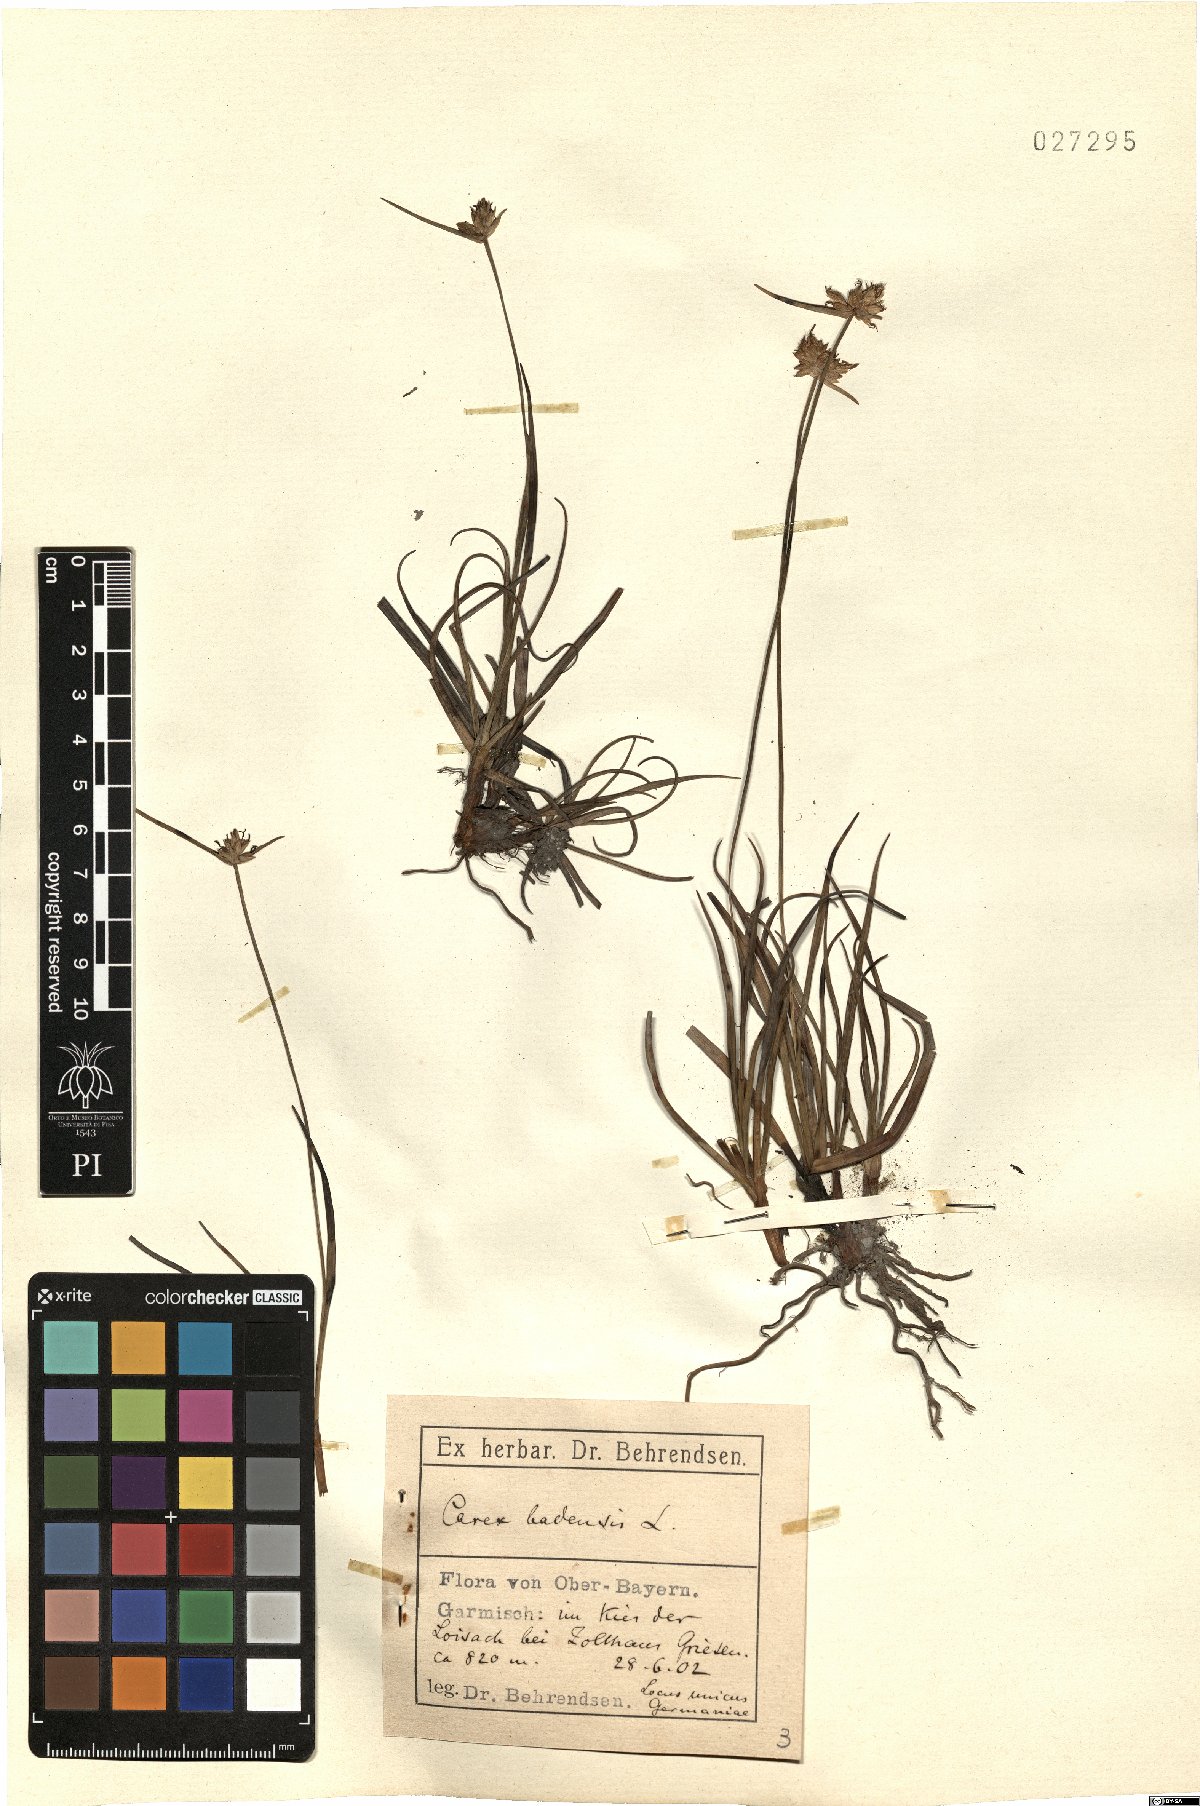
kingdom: Plantae
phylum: Tracheophyta
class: Liliopsida
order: Poales
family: Cyperaceae
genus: Carex
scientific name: Carex baldensis
